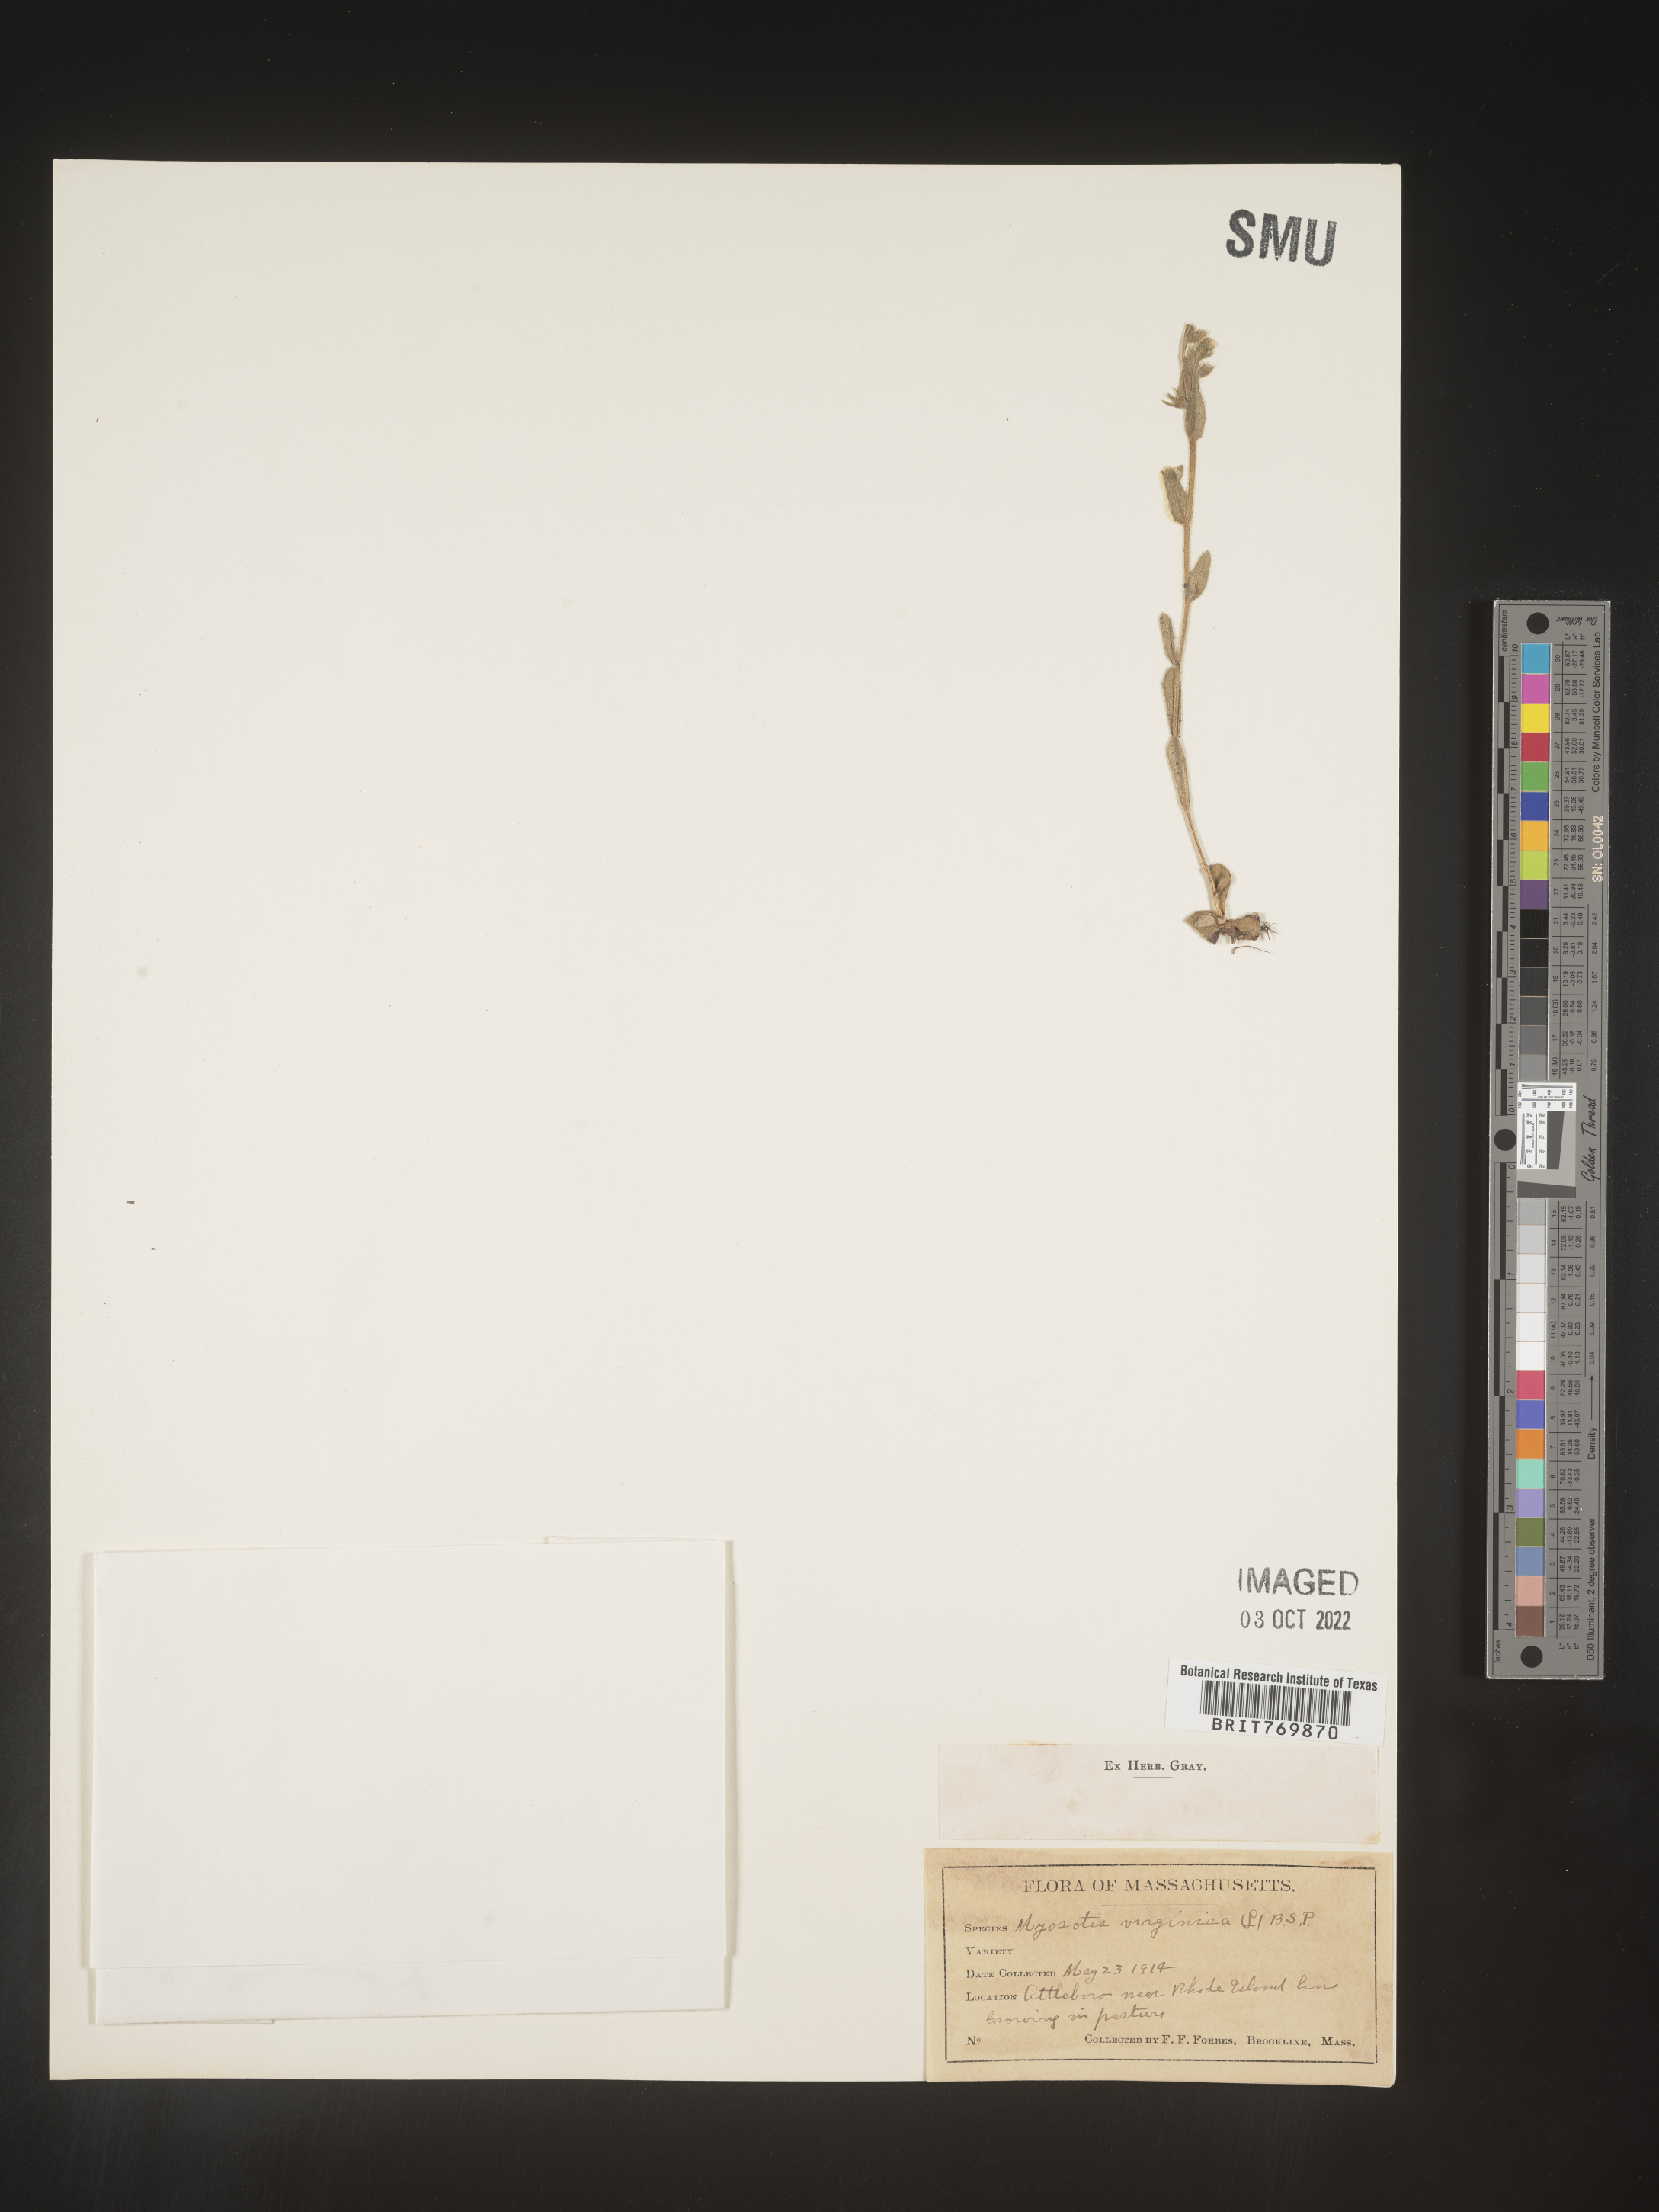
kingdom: Plantae
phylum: Tracheophyta
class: Magnoliopsida
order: Boraginales
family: Boraginaceae
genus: Myosotis
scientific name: Myosotis
